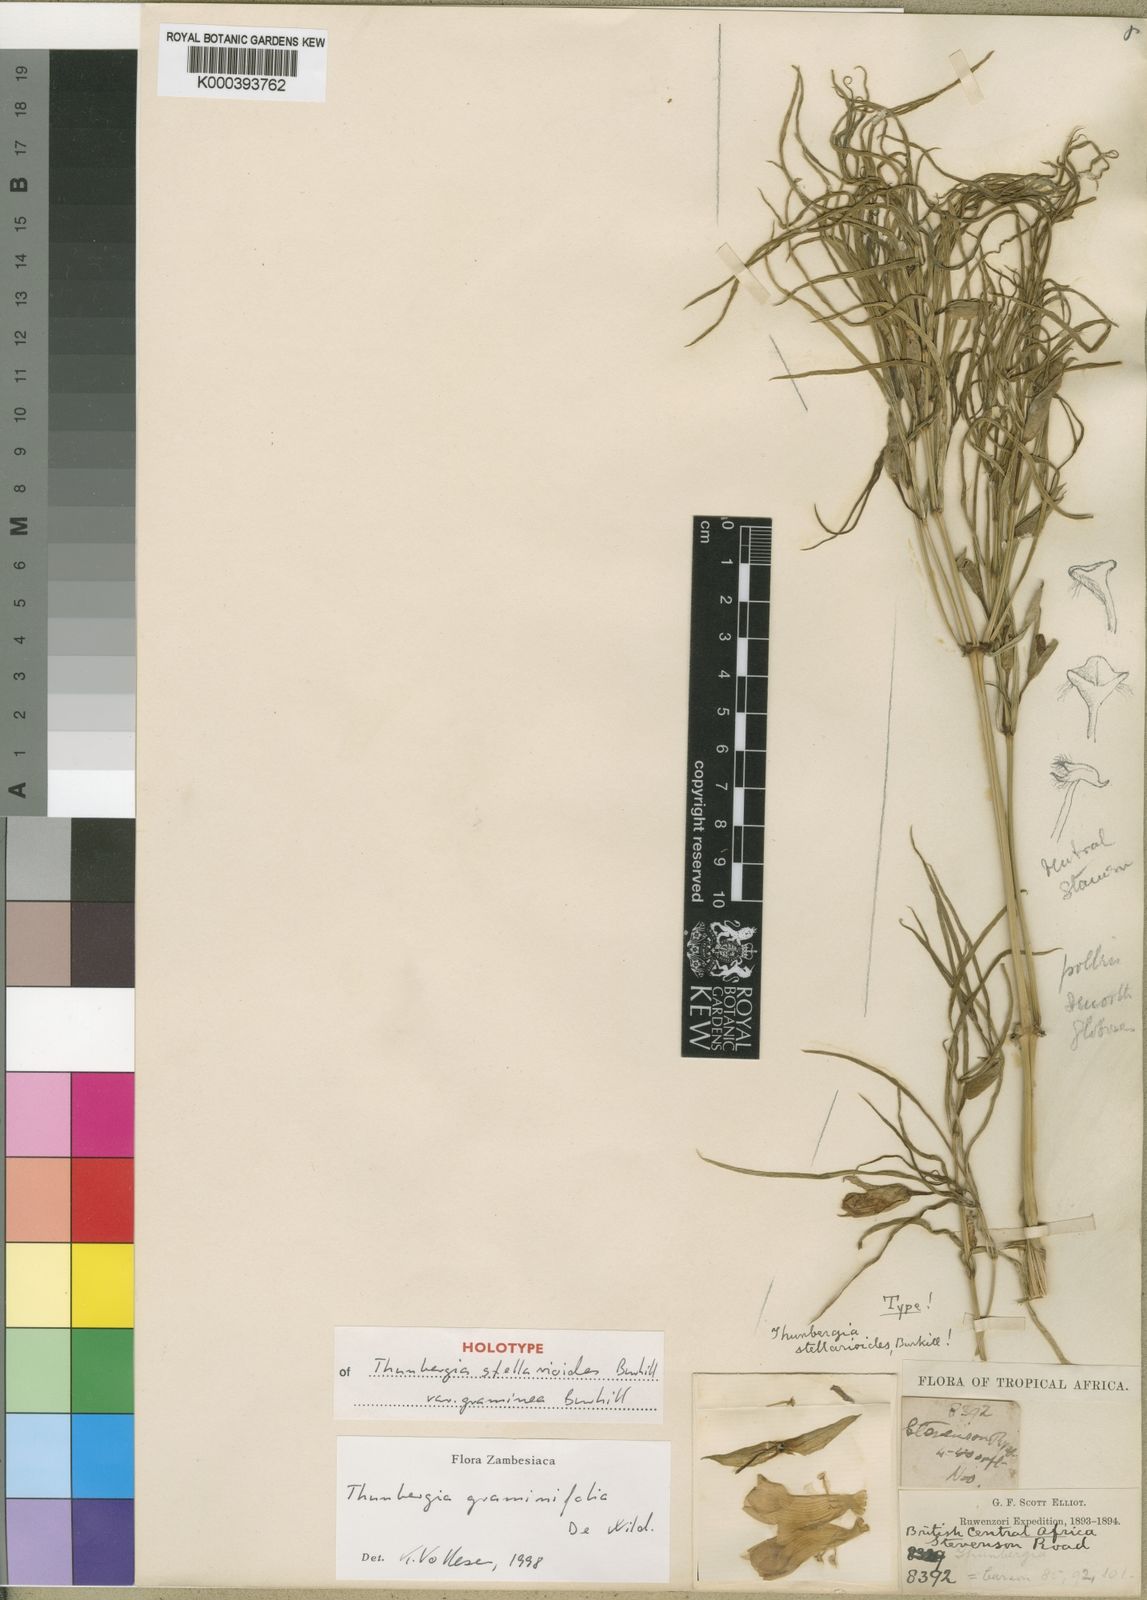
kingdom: Plantae
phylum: Tracheophyta
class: Magnoliopsida
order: Lamiales
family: Acanthaceae
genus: Thunbergia
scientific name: Thunbergia graminifolia
